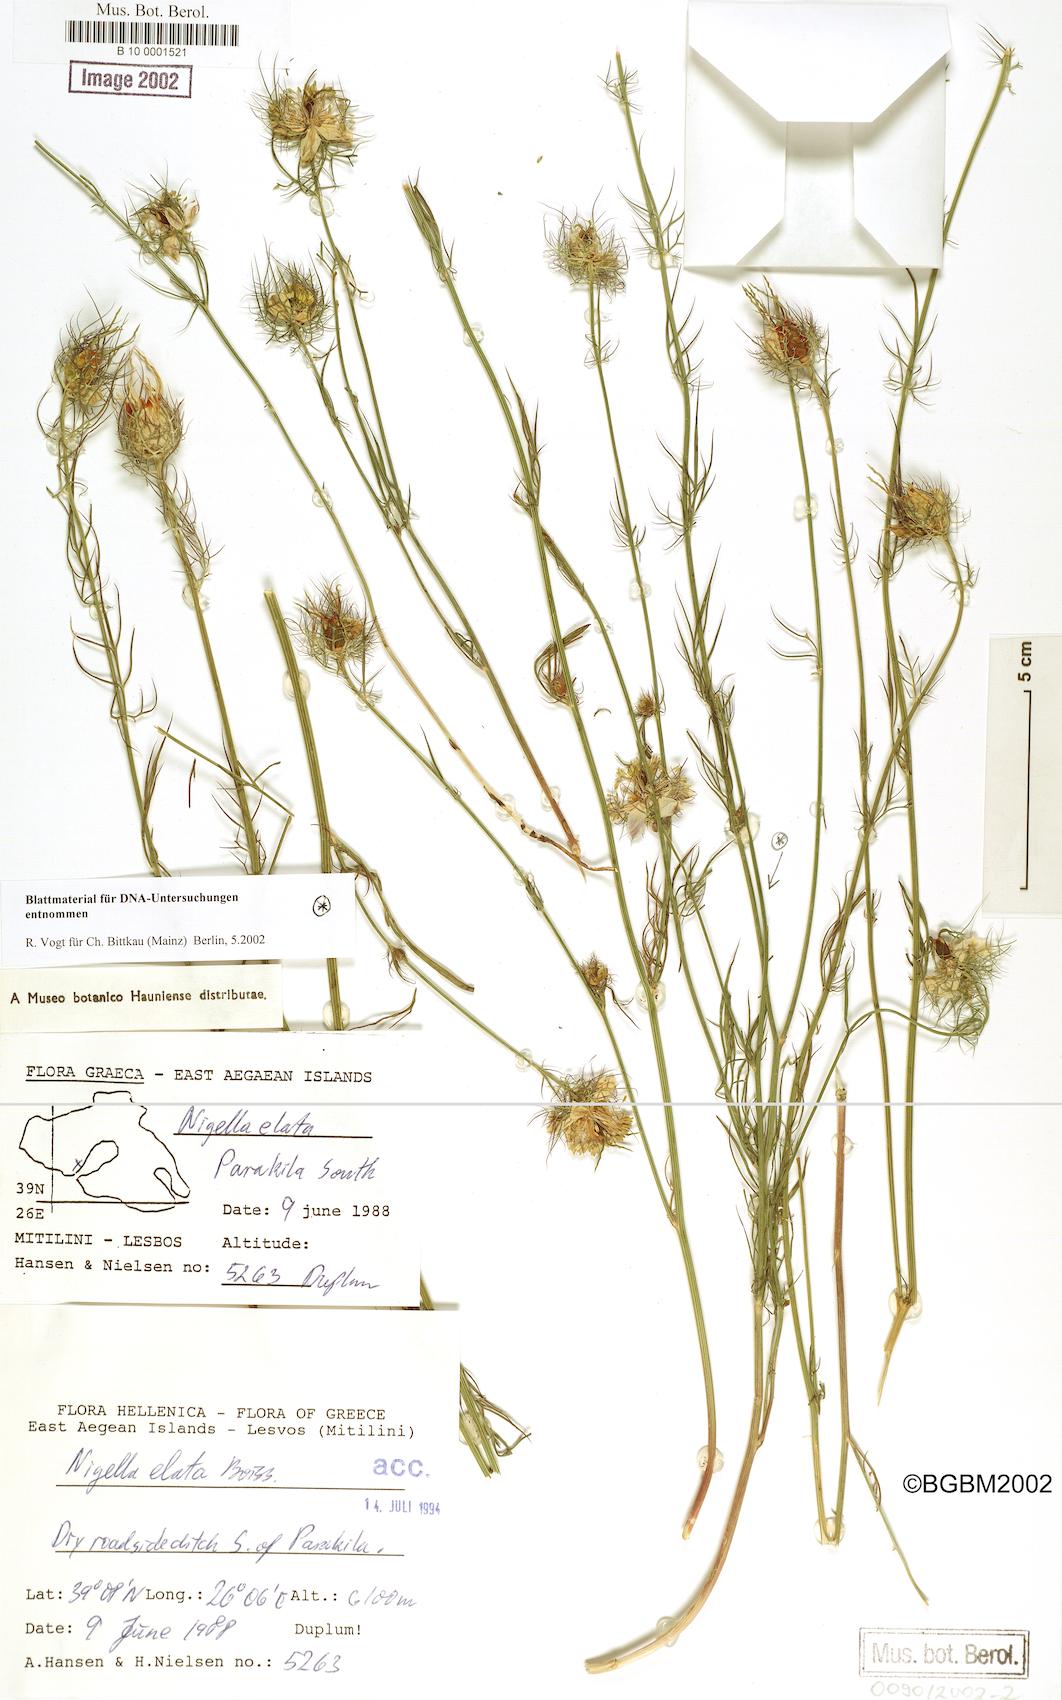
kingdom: Plantae
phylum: Tracheophyta
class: Magnoliopsida
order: Ranunculales
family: Ranunculaceae
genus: Nigella
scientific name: Nigella elata
